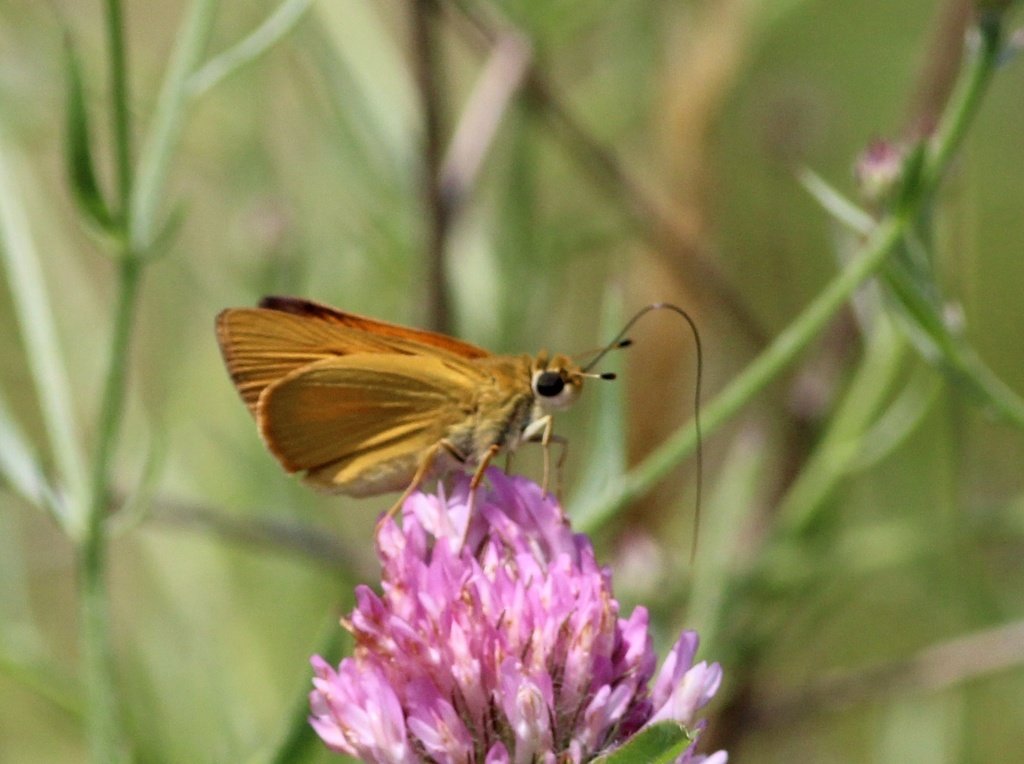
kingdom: Animalia
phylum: Arthropoda
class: Insecta
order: Lepidoptera
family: Hesperiidae
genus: Atrytone
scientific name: Atrytone delaware
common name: Delaware Skipper
